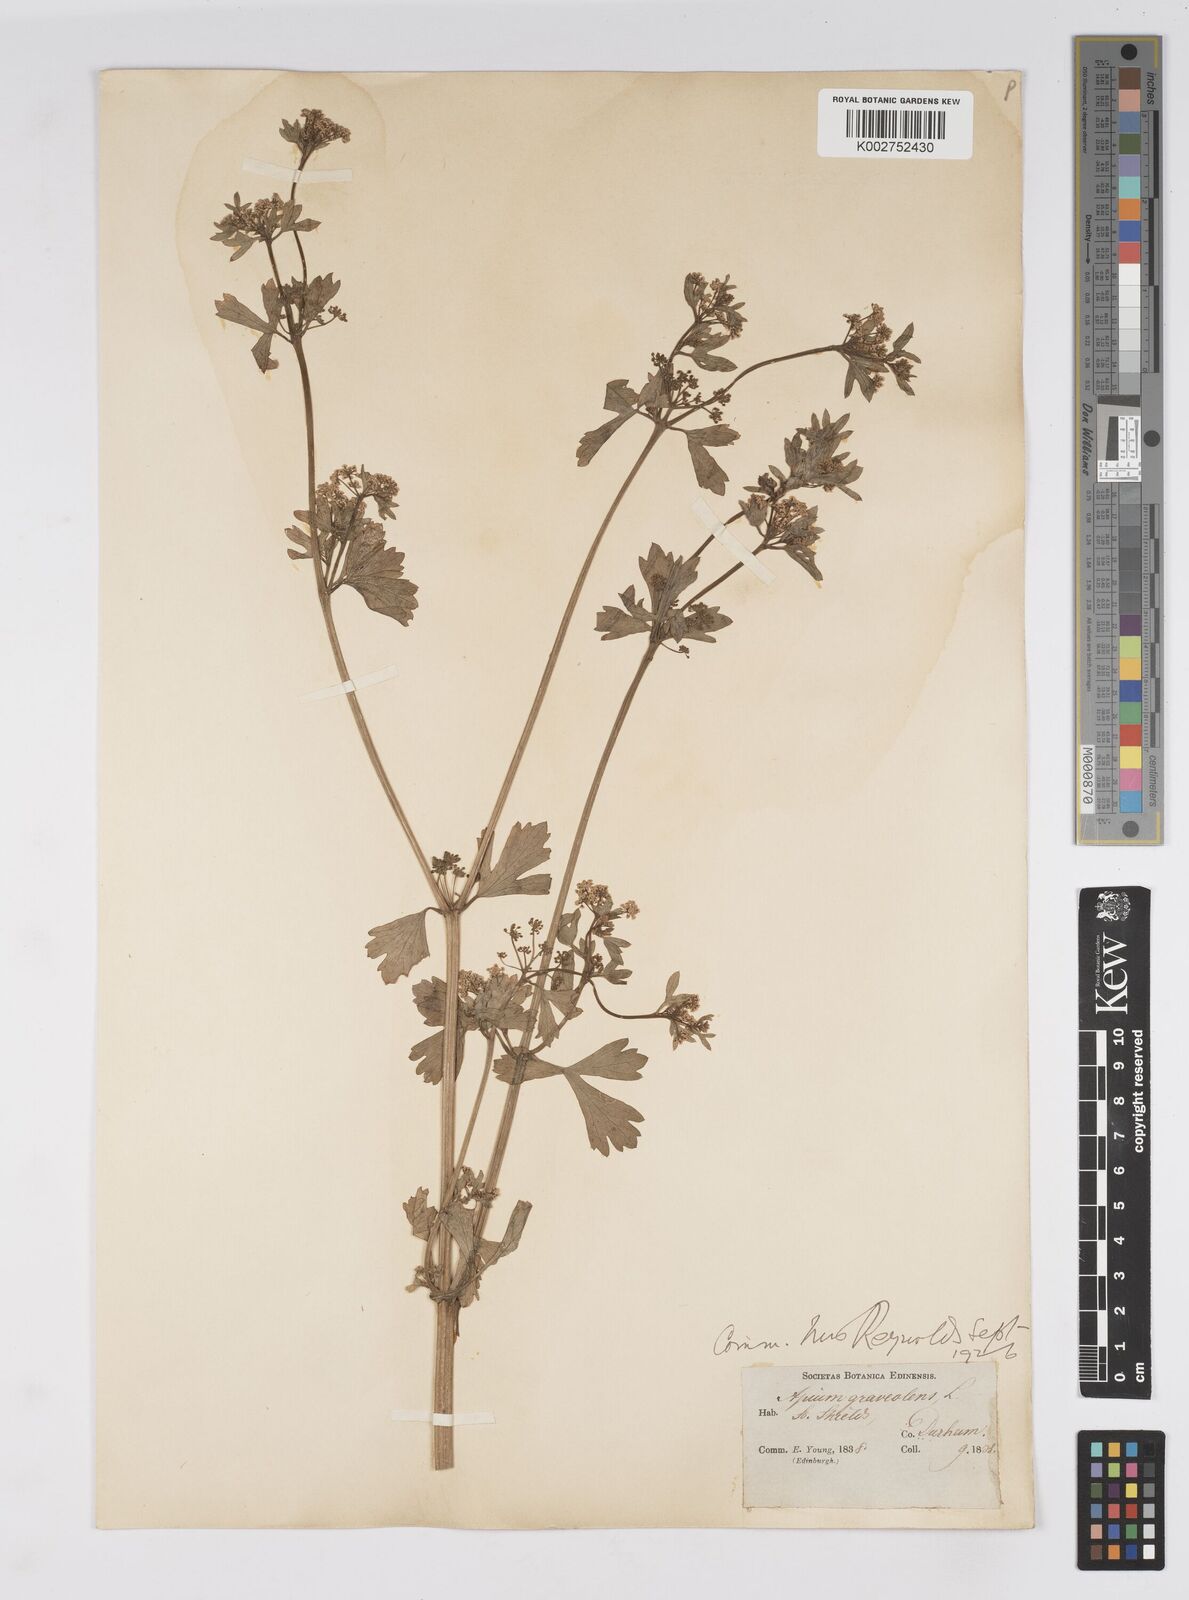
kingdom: Plantae
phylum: Tracheophyta
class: Magnoliopsida
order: Apiales
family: Apiaceae
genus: Apium
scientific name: Apium graveolens
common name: Wild celery
